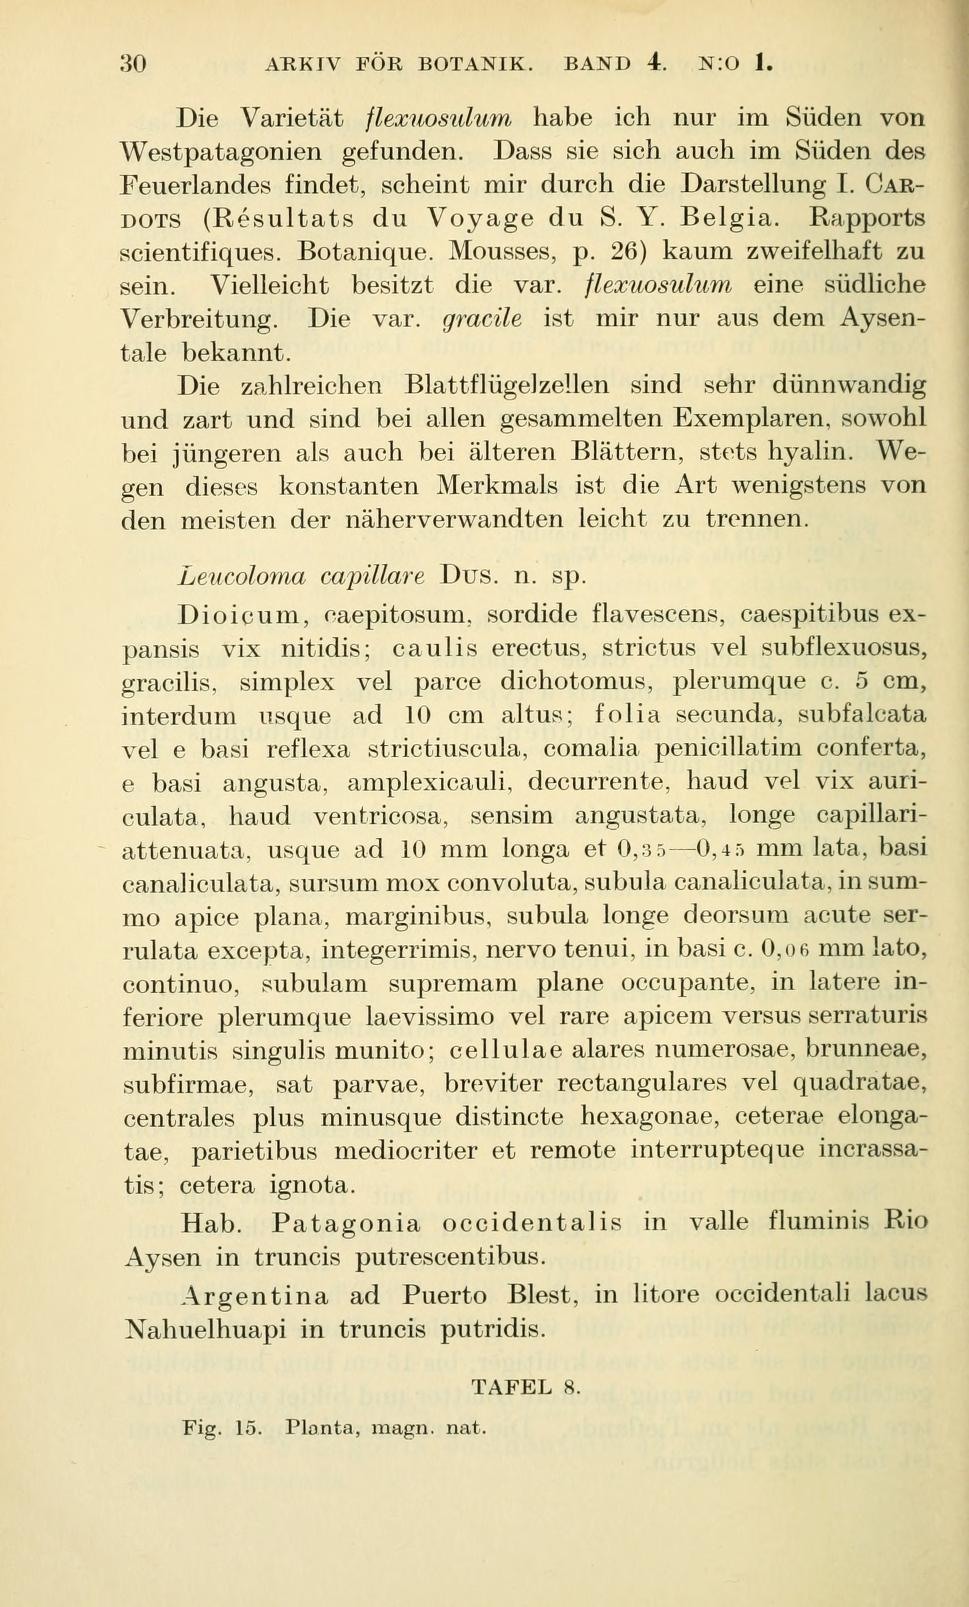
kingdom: Plantae
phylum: Bryophyta
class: Bryopsida
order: Dicranales
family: Dicranaceae
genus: Dicranoloma
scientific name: Dicranoloma capillare
